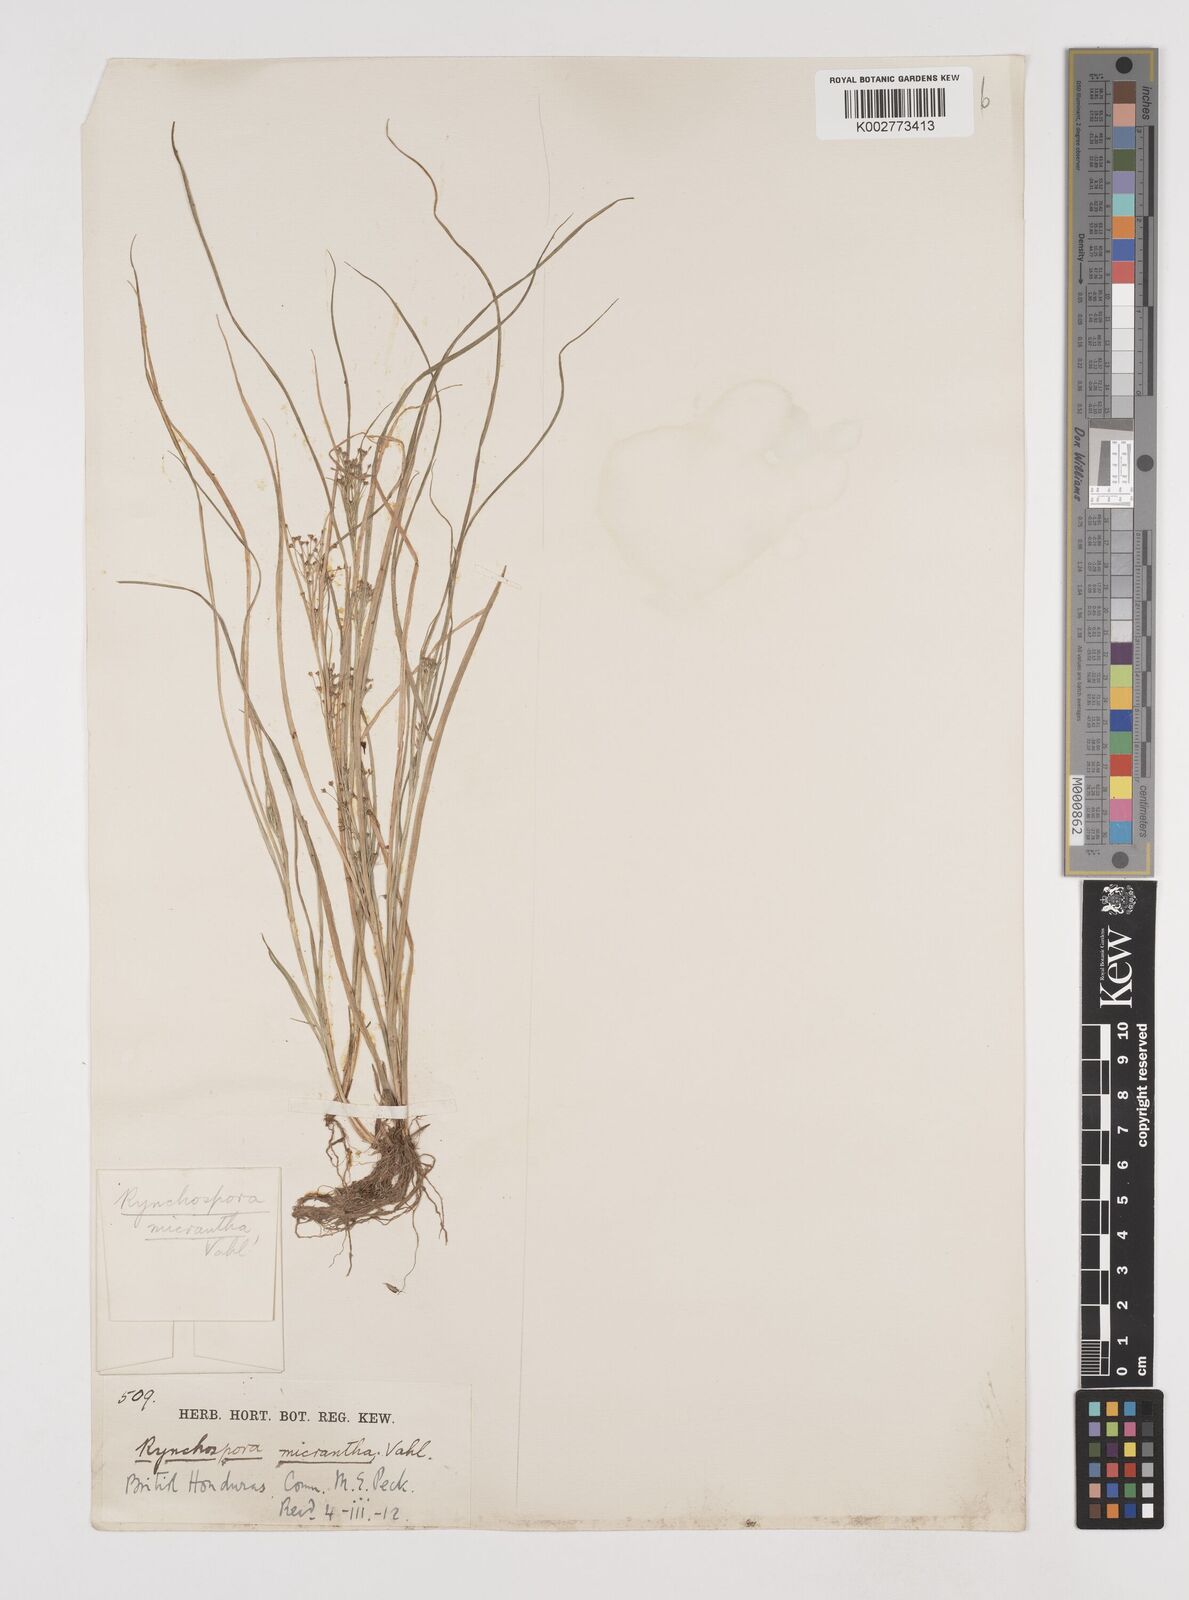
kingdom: Plantae
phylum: Tracheophyta
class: Liliopsida
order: Poales
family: Cyperaceae
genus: Rhynchospora
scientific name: Rhynchospora contracta
